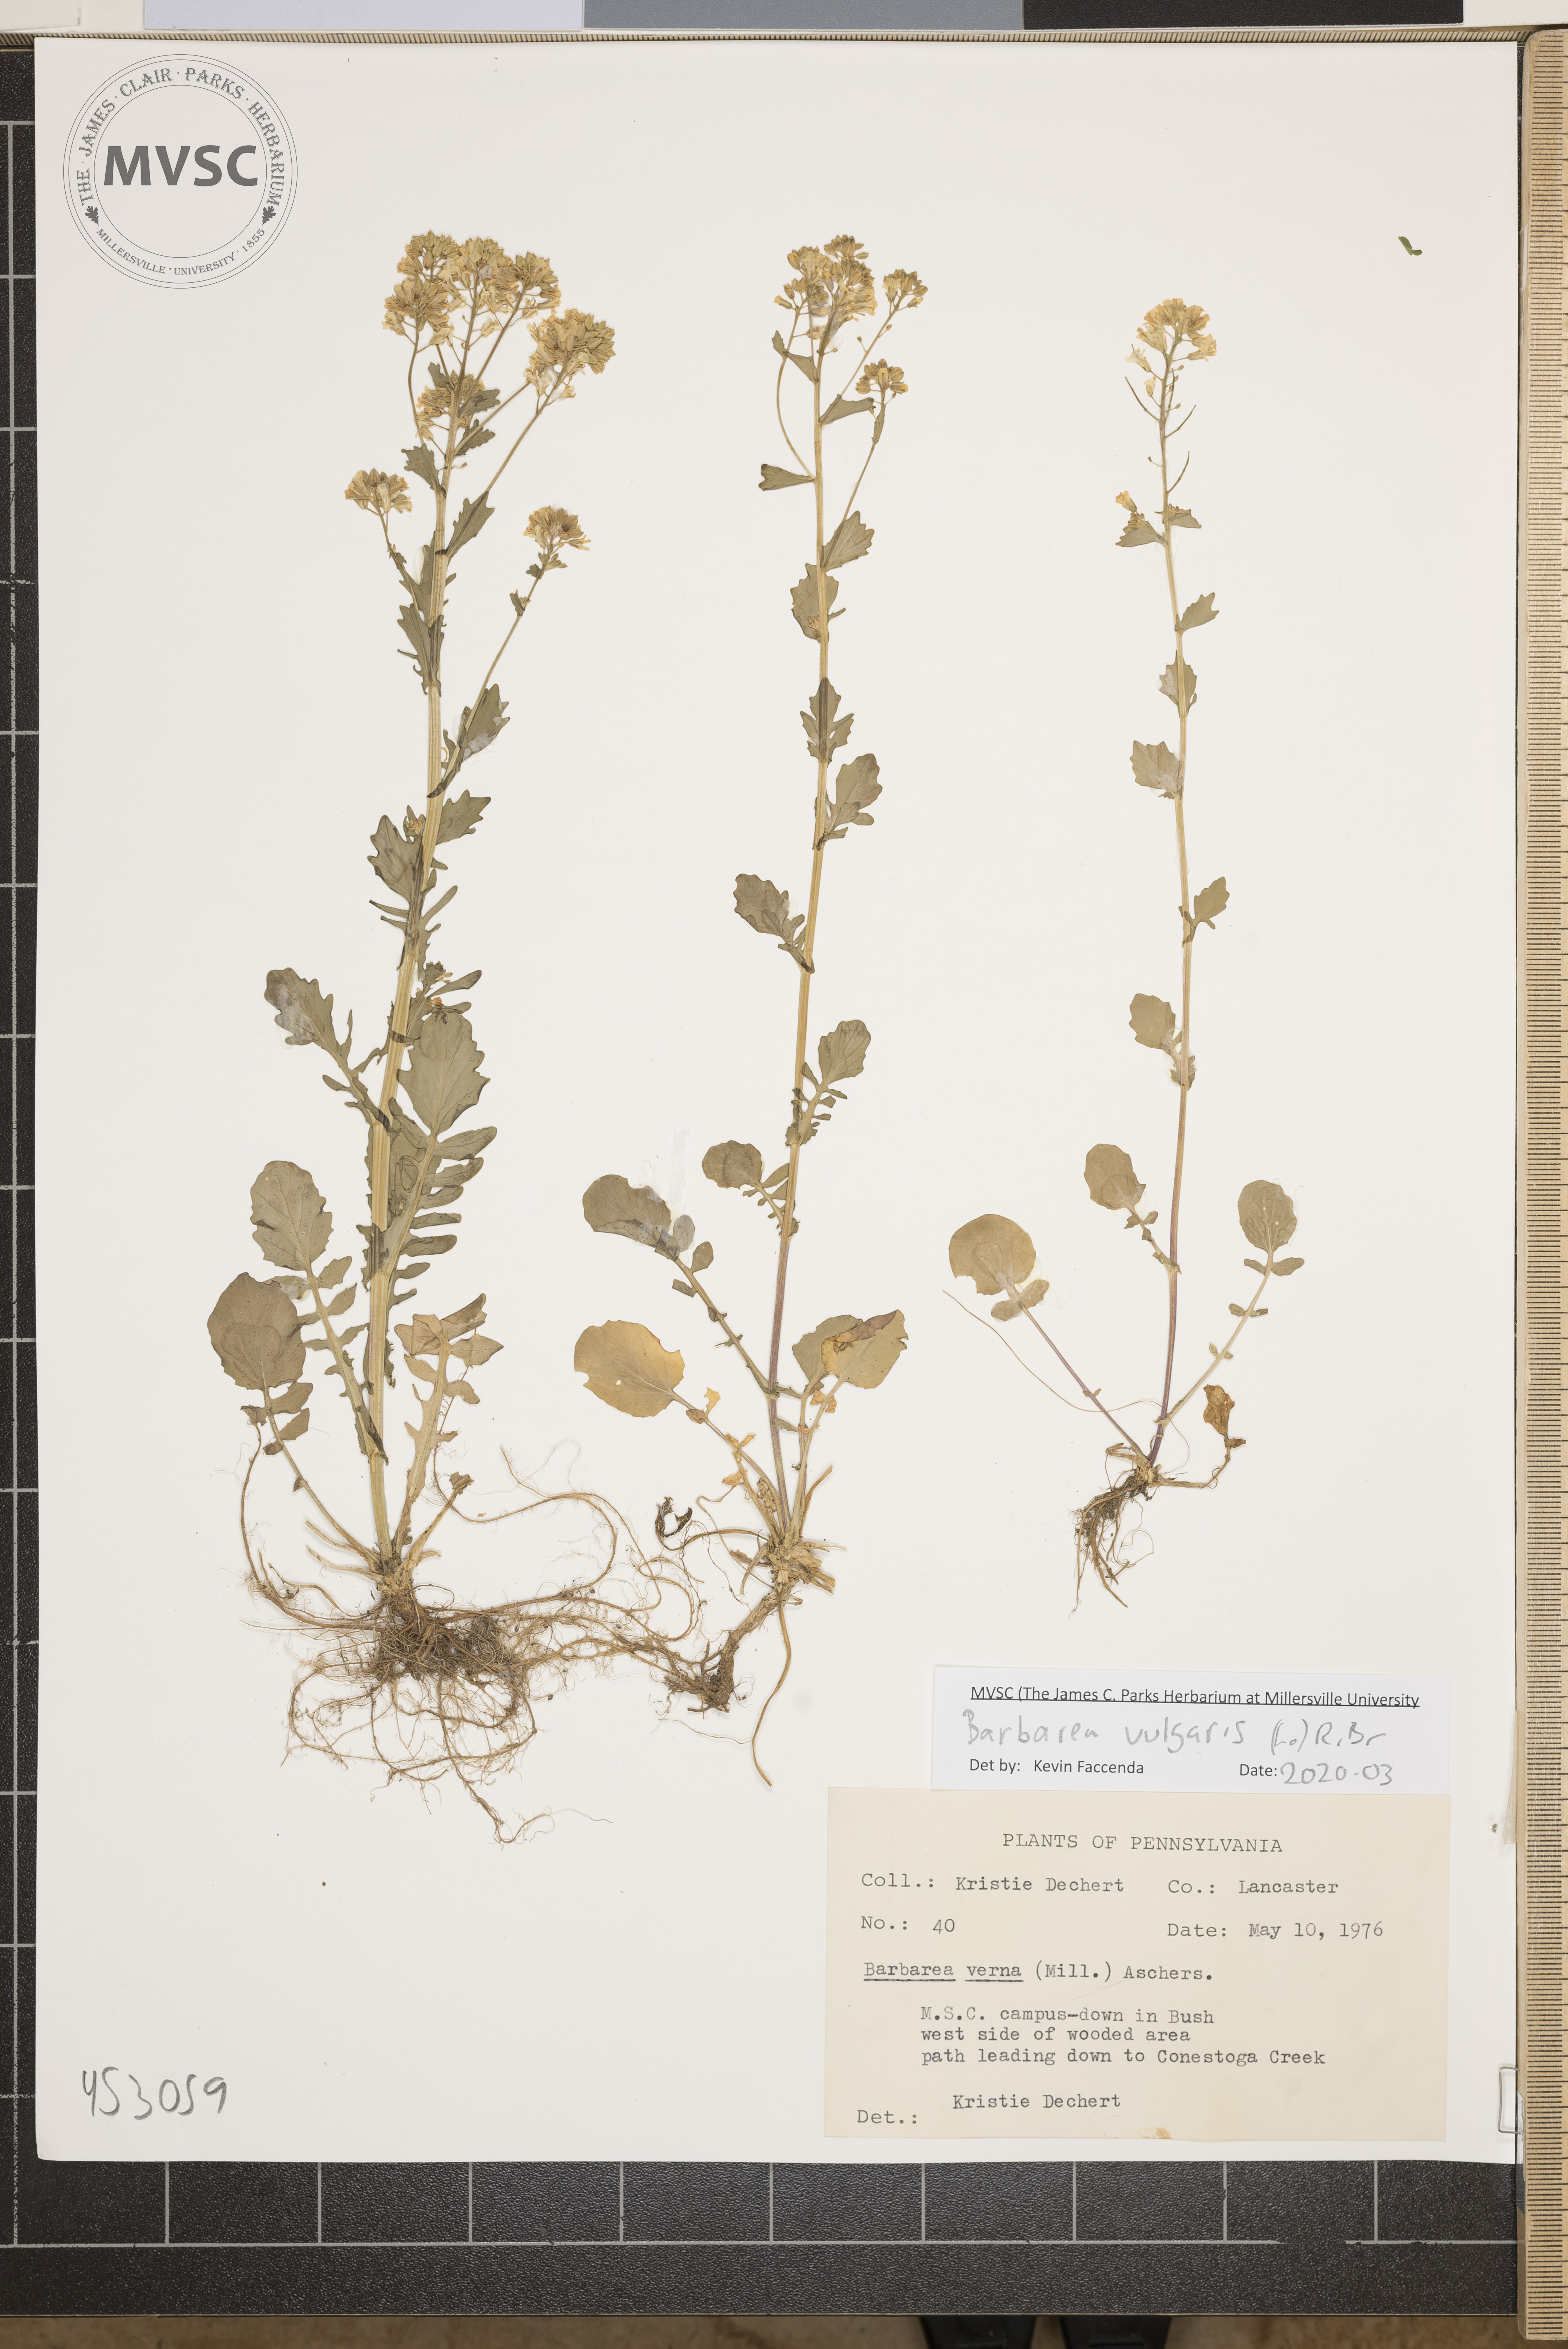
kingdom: Plantae
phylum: Tracheophyta
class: Magnoliopsida
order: Brassicales
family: Brassicaceae
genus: Barbarea
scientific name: Barbarea vulgaris
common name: Cressy-greens
